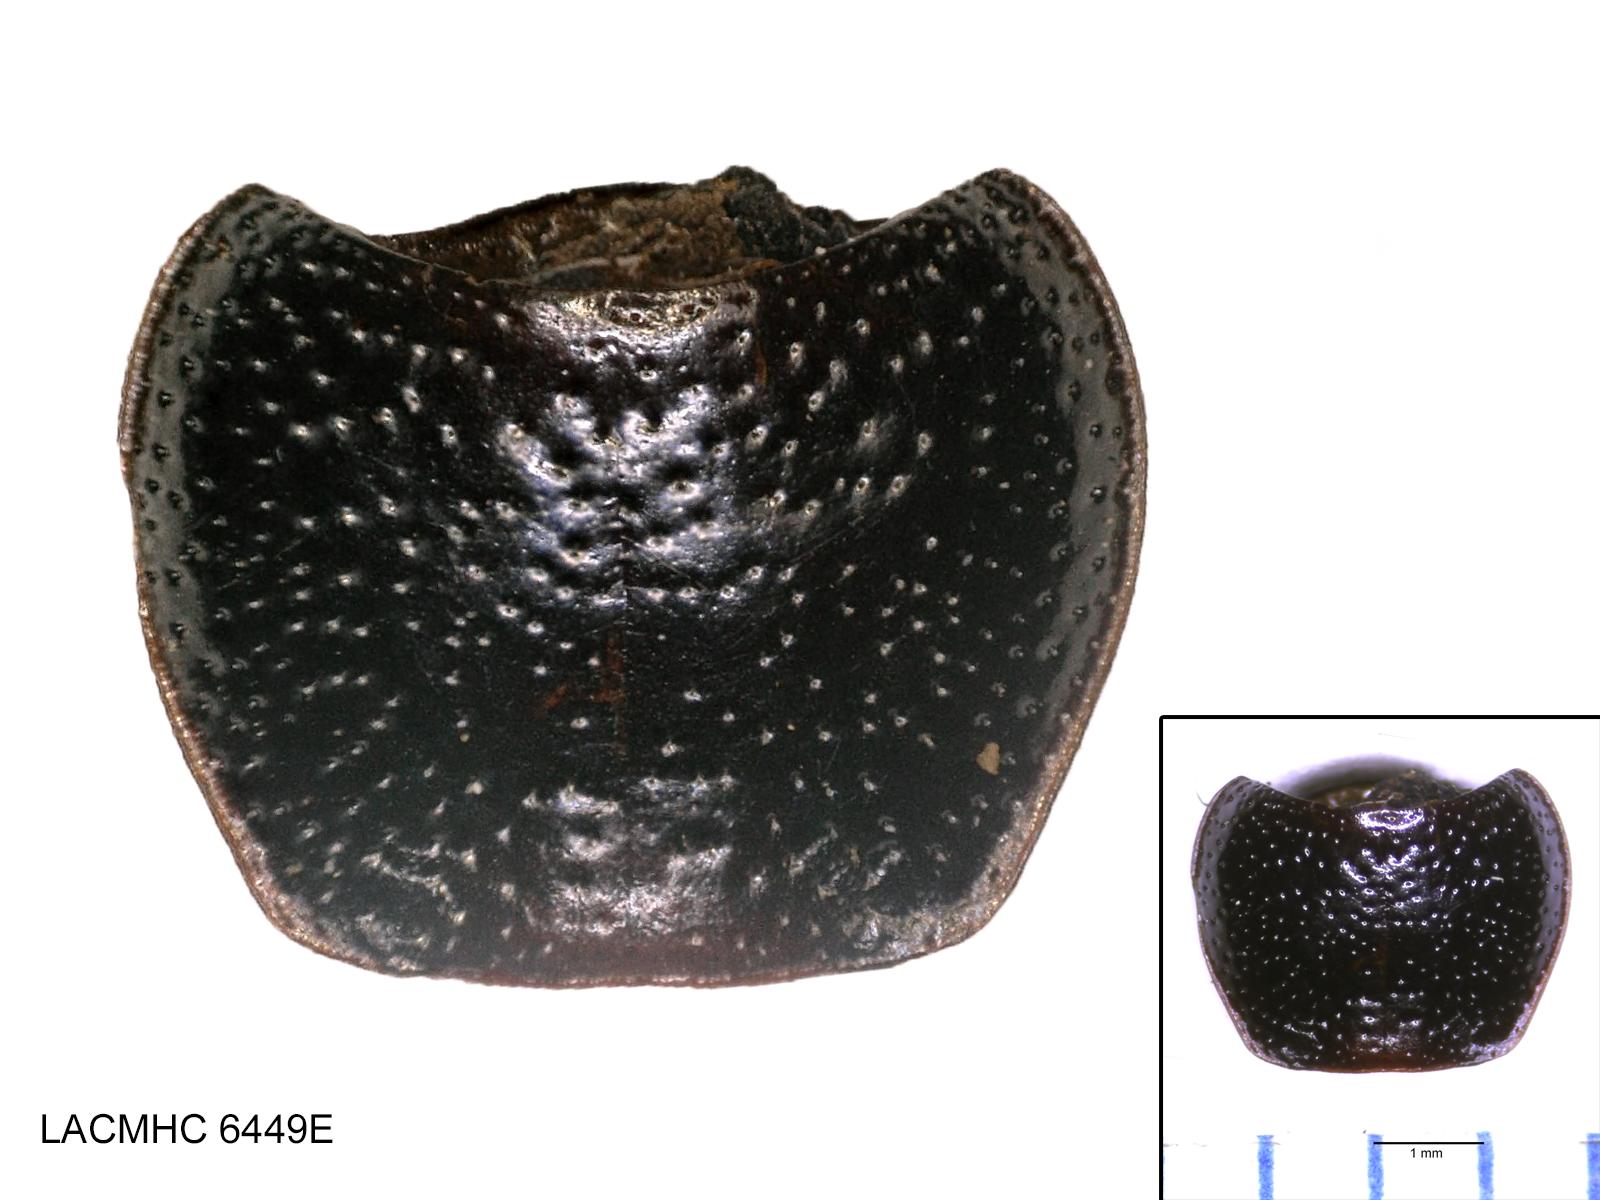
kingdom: Animalia
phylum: Arthropoda
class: Insecta
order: Coleoptera
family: Carabidae
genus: Dicheirus
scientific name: Dicheirus dilatatus
